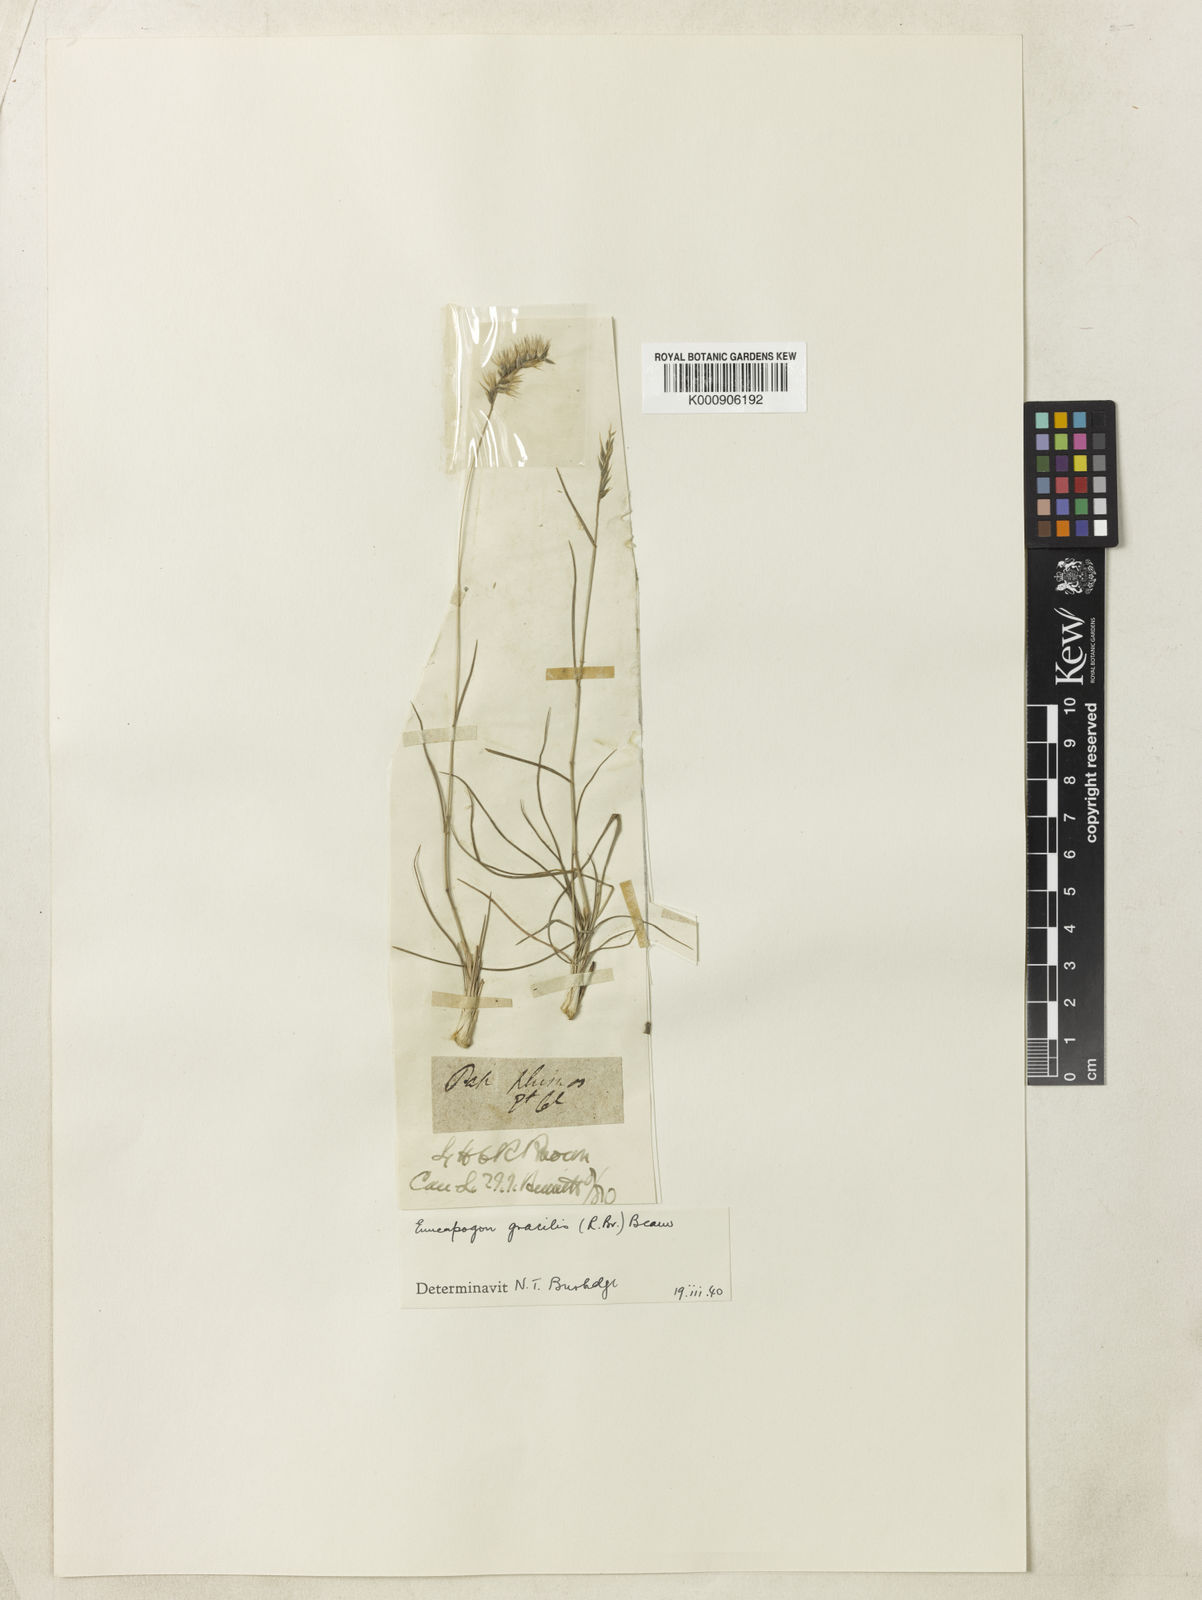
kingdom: Plantae
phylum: Tracheophyta
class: Liliopsida
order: Poales
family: Poaceae
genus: Enneapogon
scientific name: Enneapogon gracilis
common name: Slender bottle-washers
